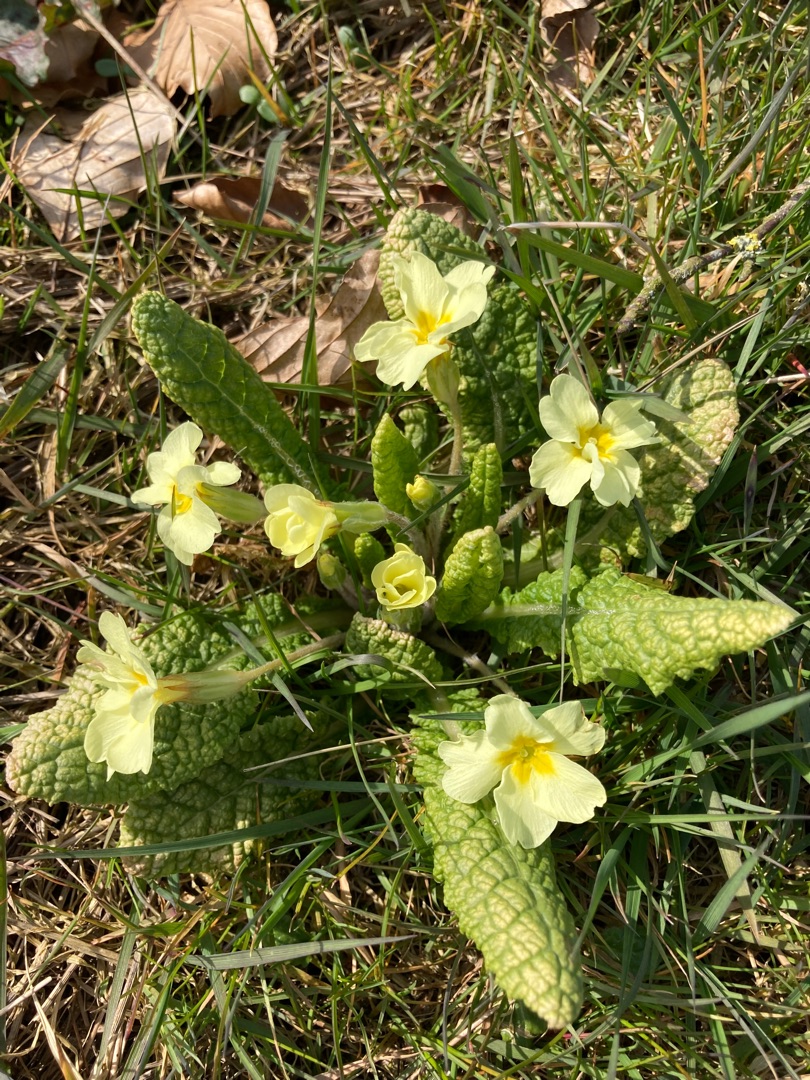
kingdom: Plantae
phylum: Tracheophyta
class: Magnoliopsida
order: Ericales
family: Primulaceae
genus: Primula
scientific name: Primula vulgaris
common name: Storblomstret kodriver
